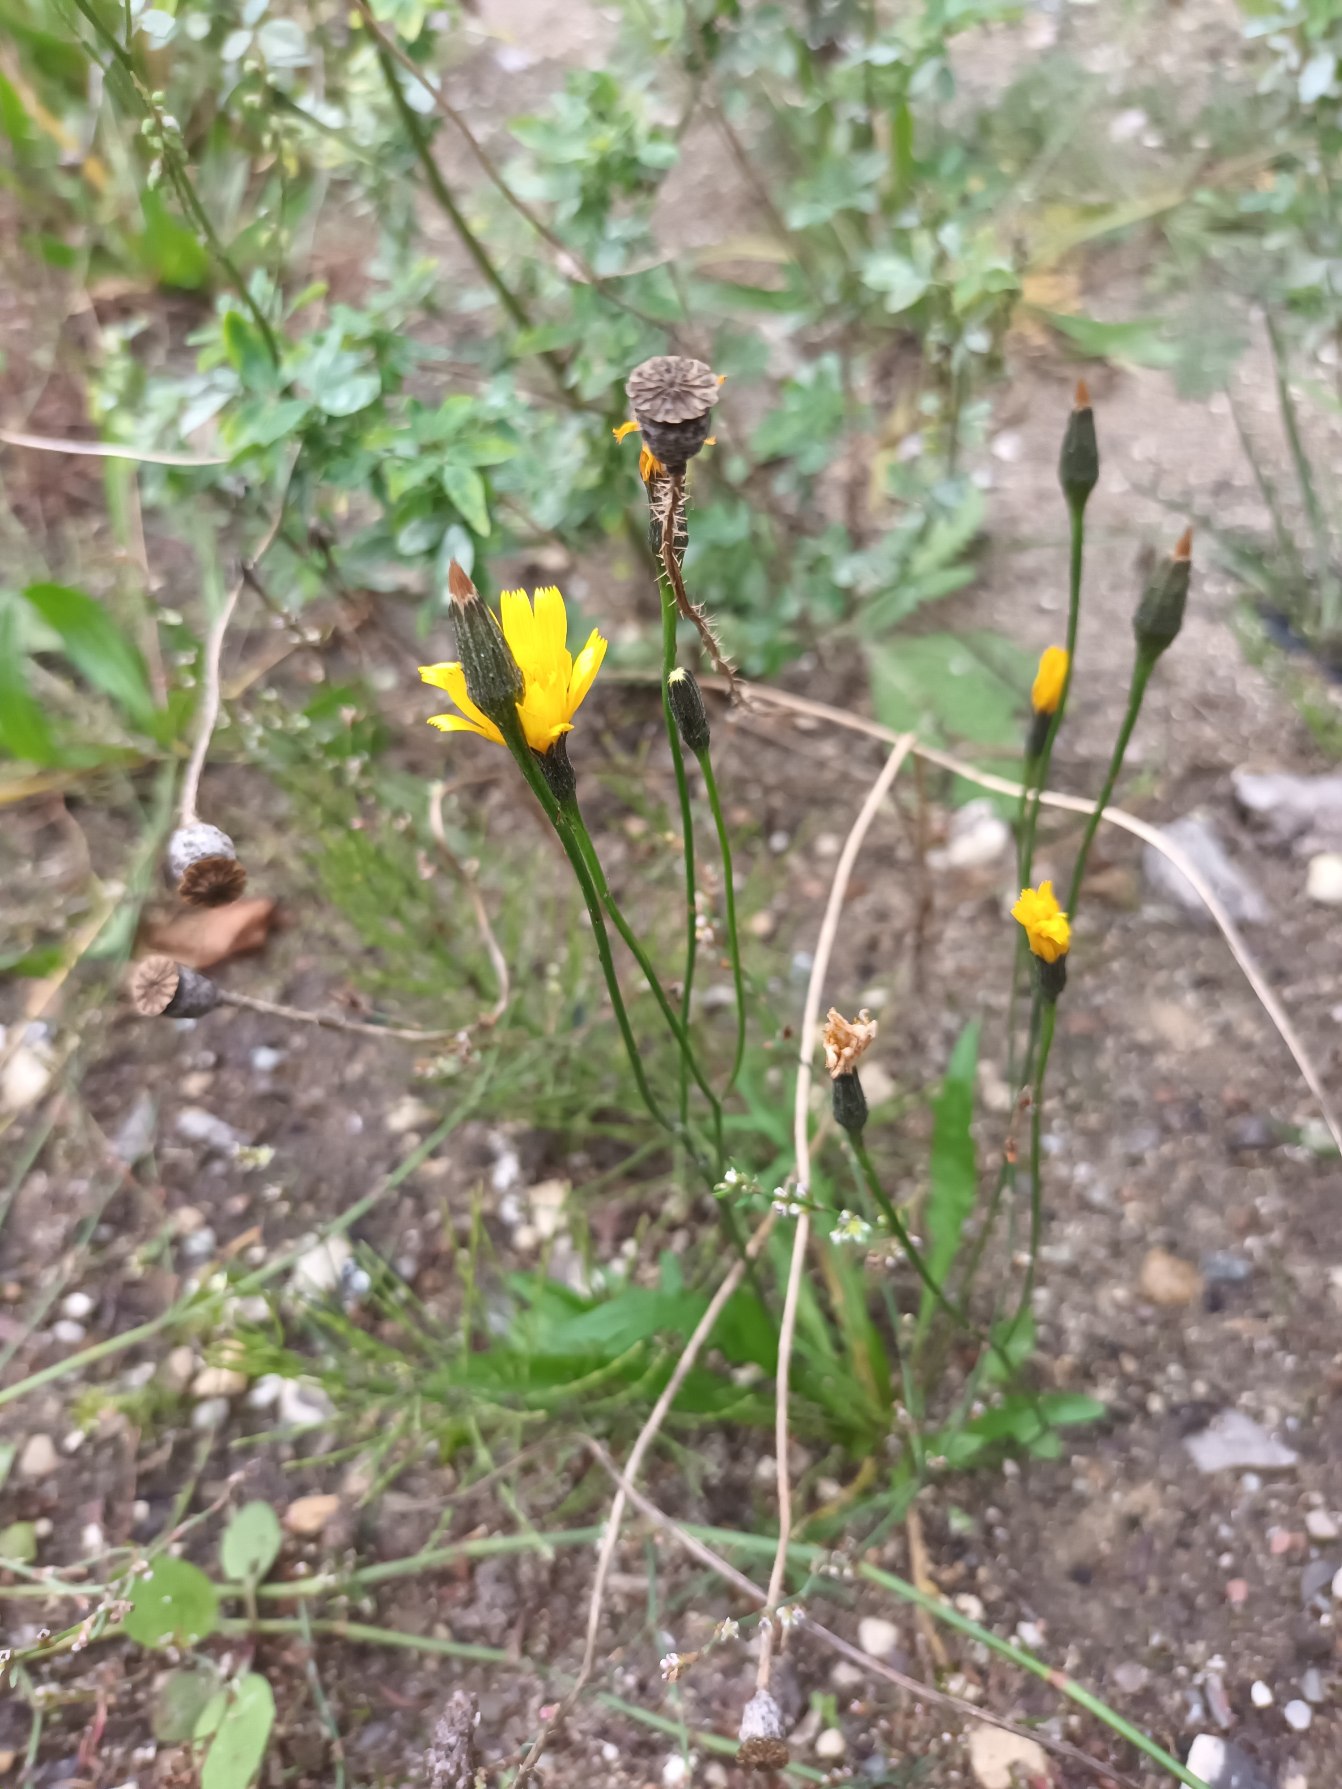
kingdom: Plantae
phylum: Tracheophyta
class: Magnoliopsida
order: Asterales
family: Asteraceae
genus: Scorzoneroides
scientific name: Scorzoneroides autumnalis
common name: Høst-borst
